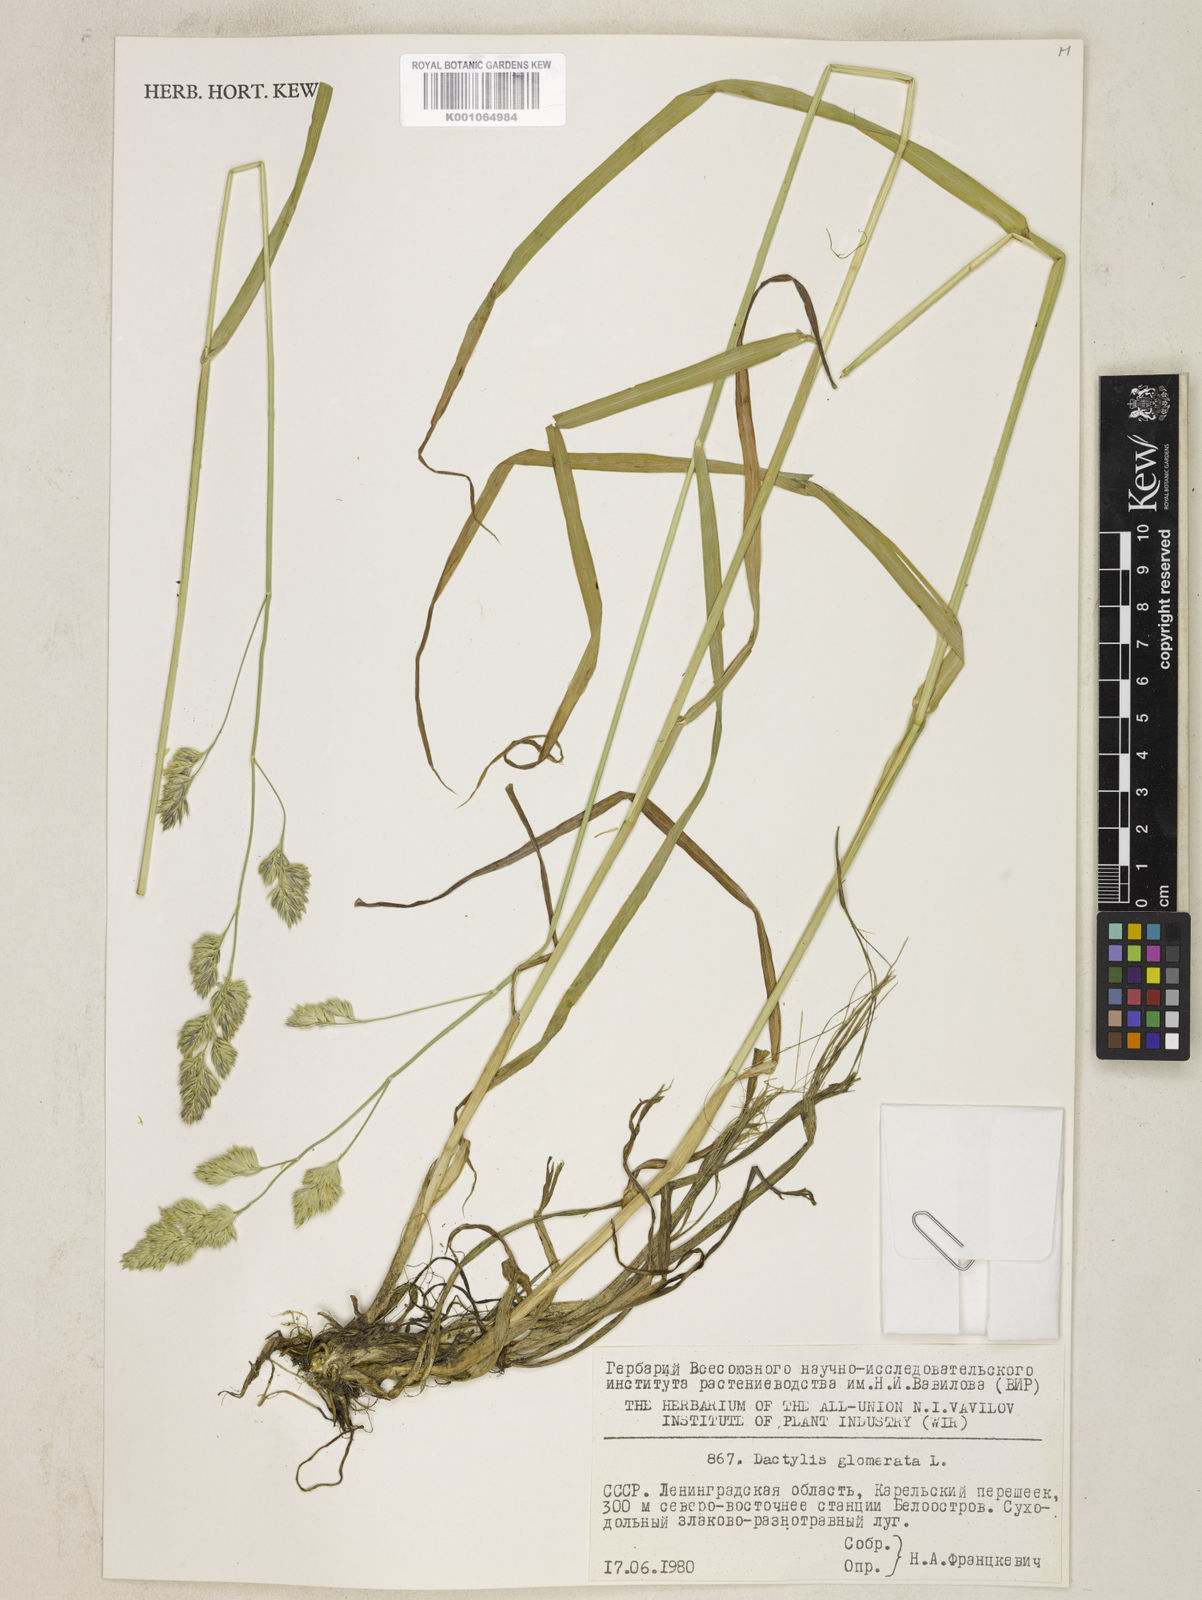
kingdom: Plantae
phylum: Tracheophyta
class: Liliopsida
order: Poales
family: Poaceae
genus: Dactylis
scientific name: Dactylis glomerata
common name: Orchardgrass
